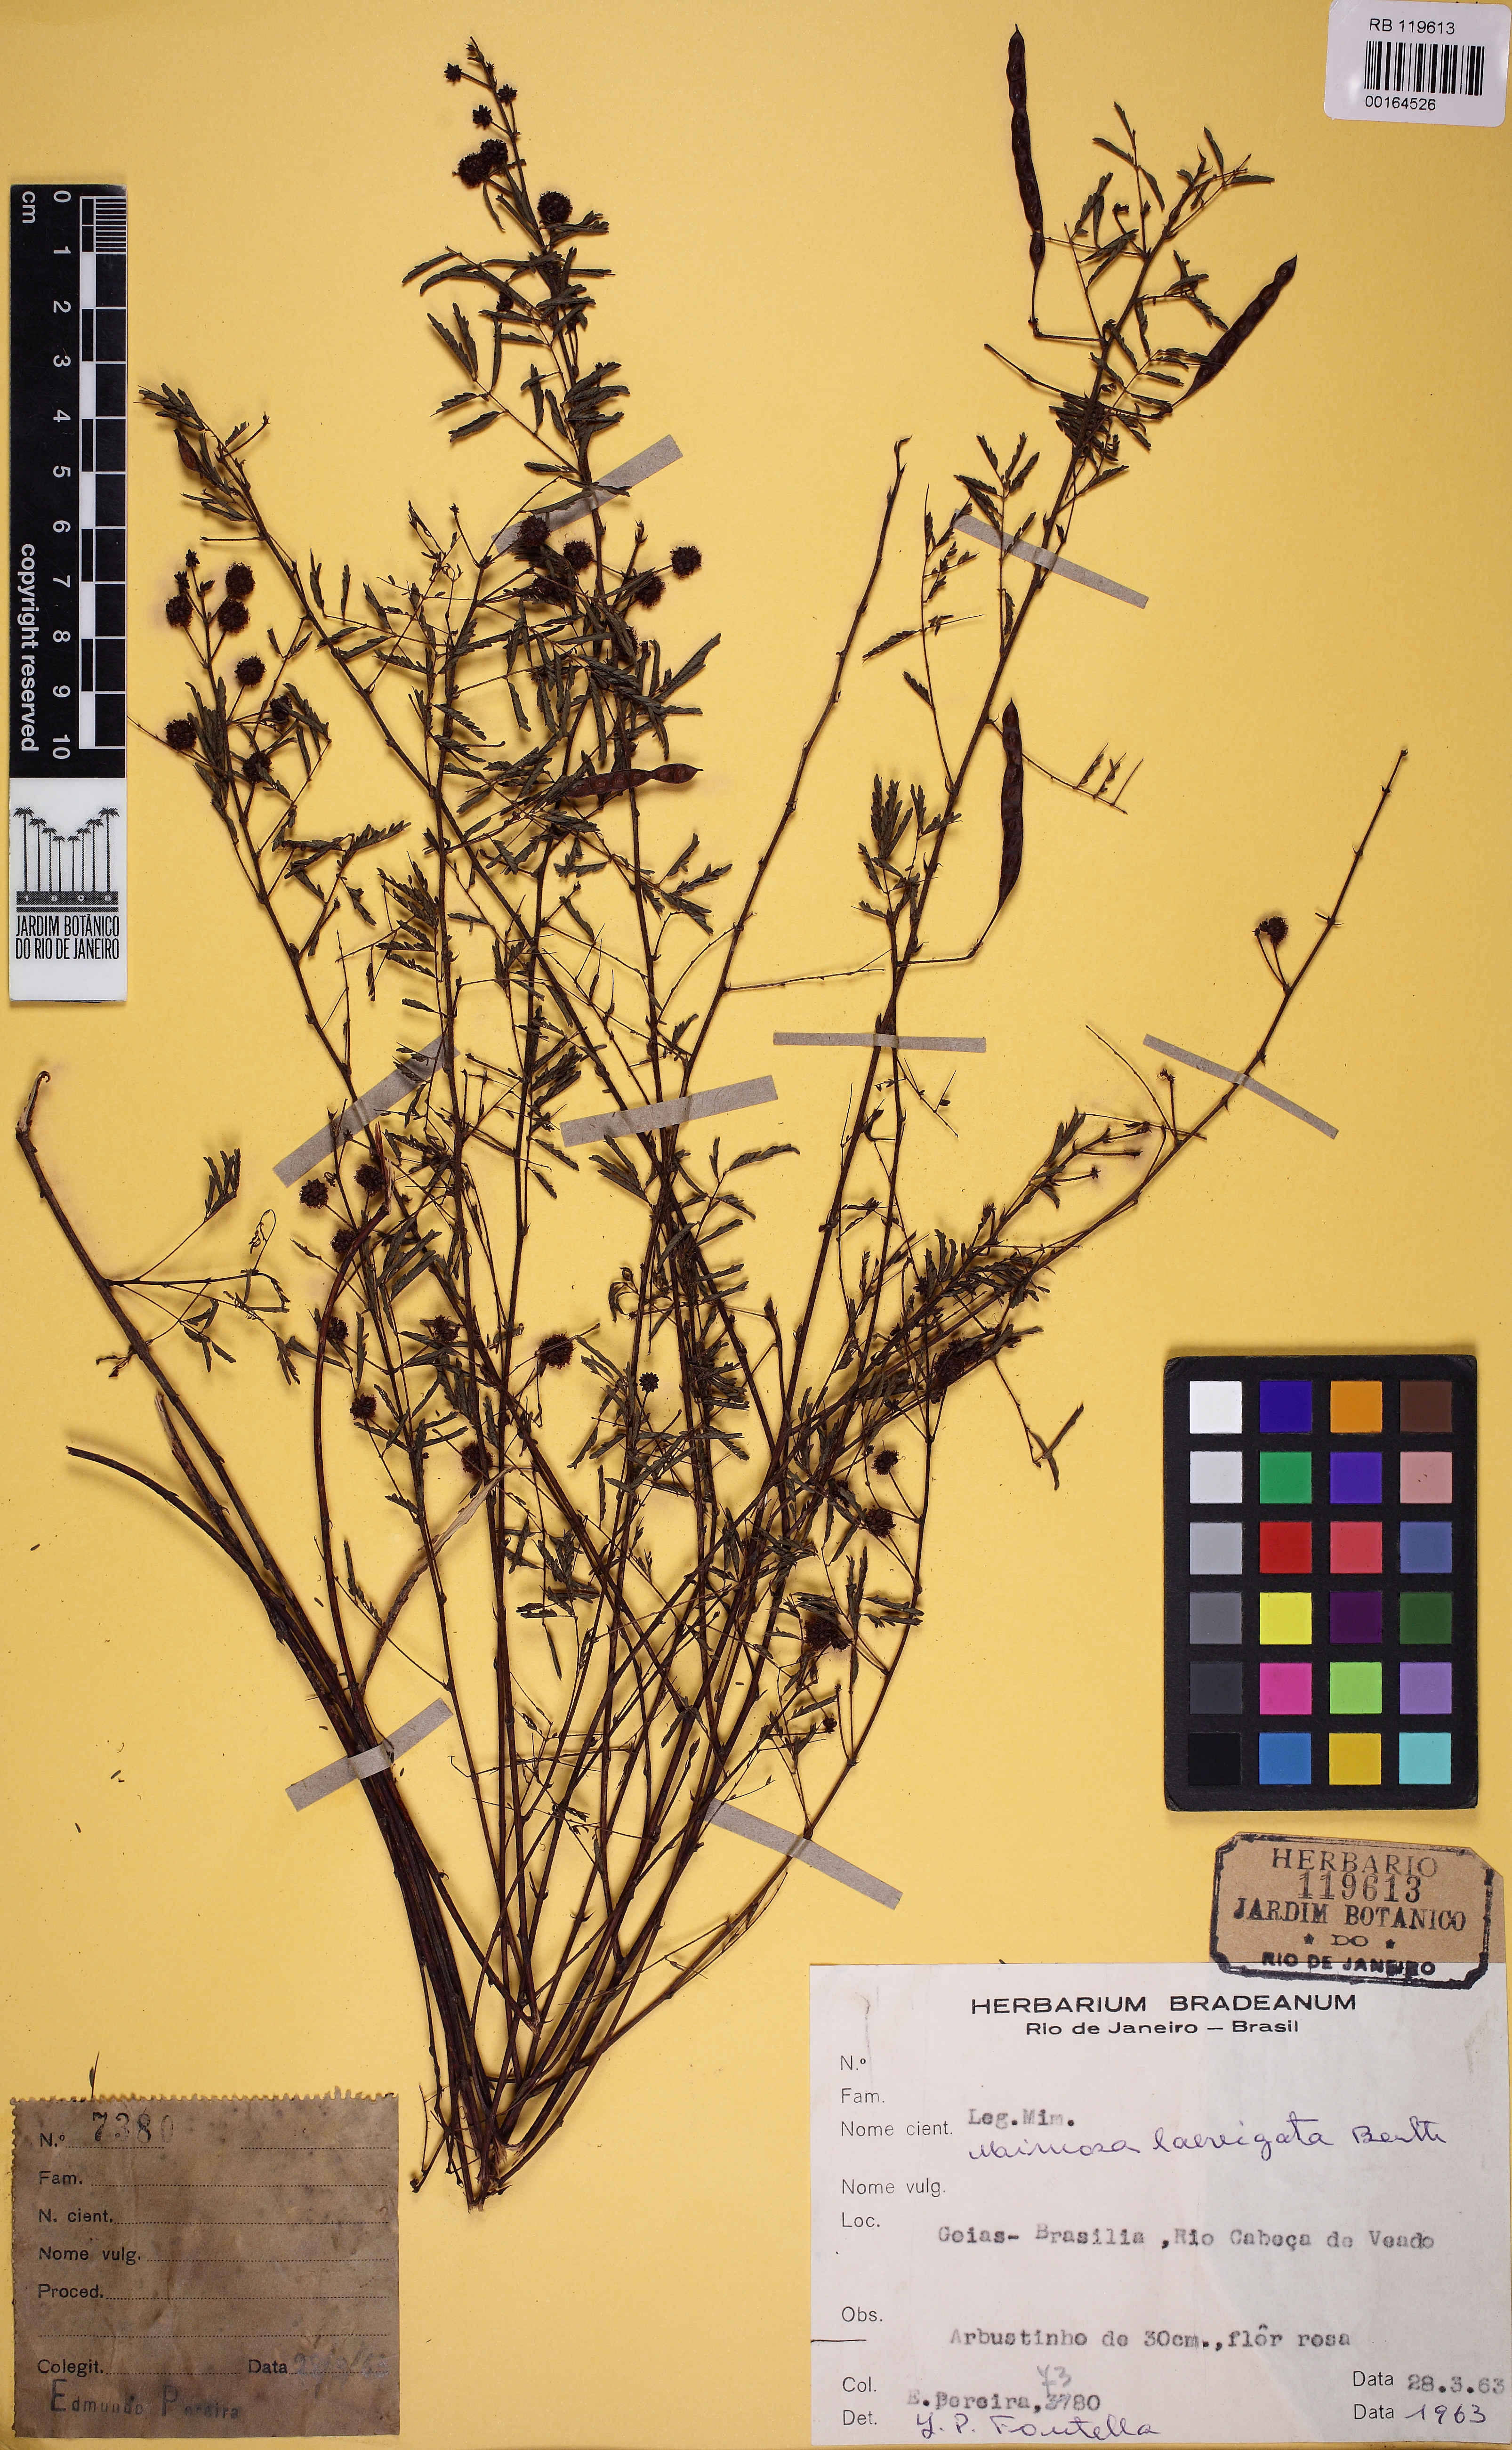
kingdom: Plantae
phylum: Tracheophyta
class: Magnoliopsida
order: Fabales
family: Fabaceae
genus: Prosopis
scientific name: Prosopis juliflora
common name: Mesquite
